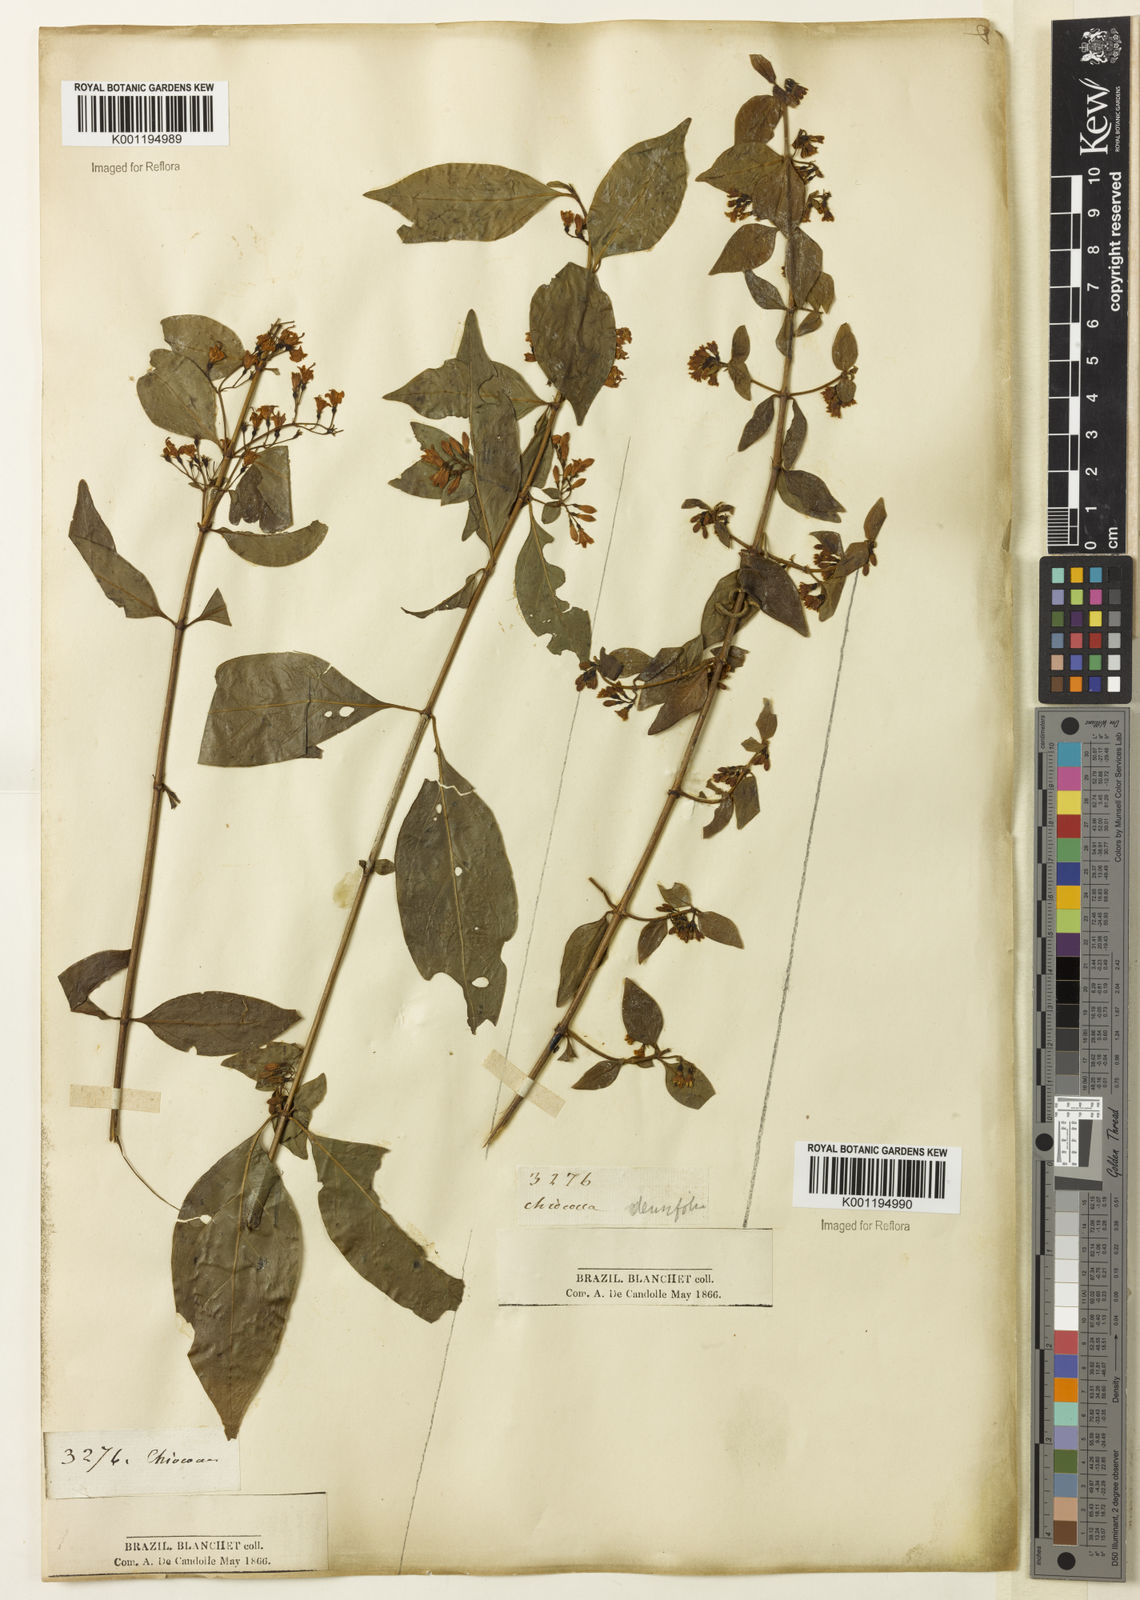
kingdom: Plantae
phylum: Tracheophyta
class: Magnoliopsida
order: Gentianales
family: Rubiaceae
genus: Chiococca
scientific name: Chiococca alba
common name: Snowberry
